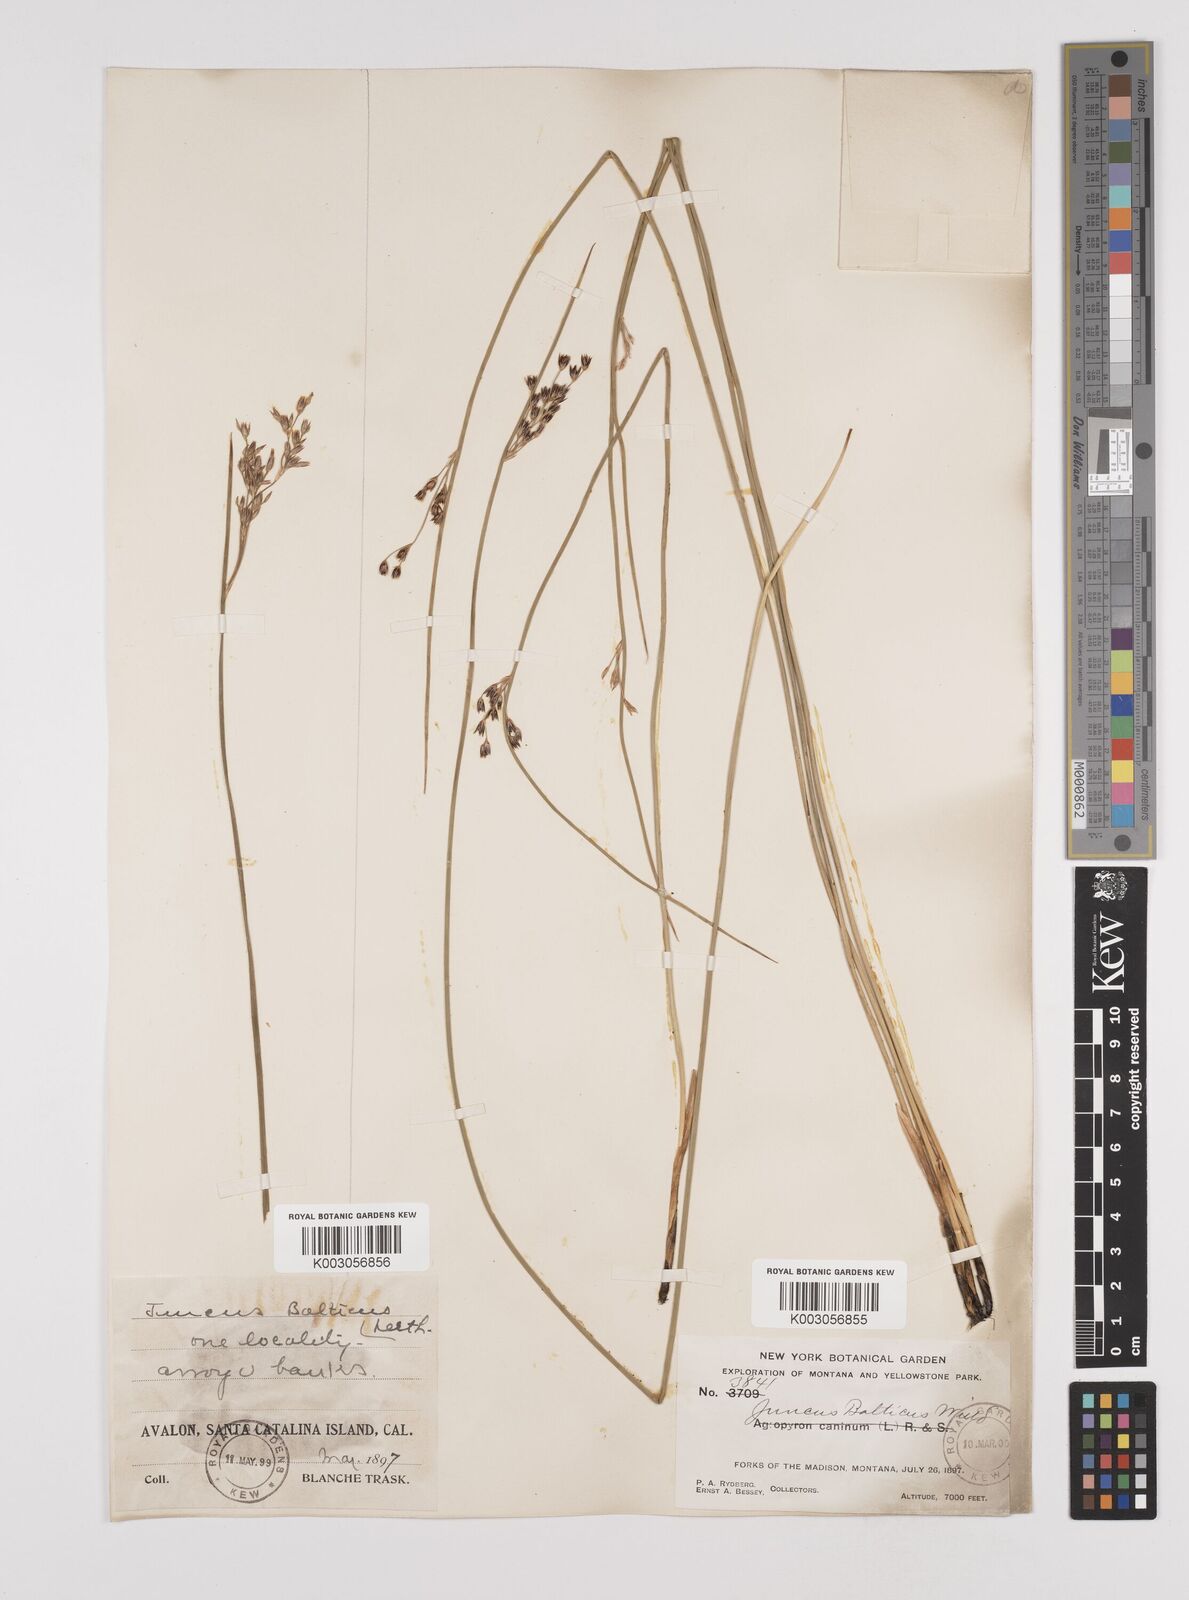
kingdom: Plantae
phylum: Tracheophyta
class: Liliopsida
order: Poales
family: Juncaceae
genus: Juncus
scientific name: Juncus balticus
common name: Baltic rush
